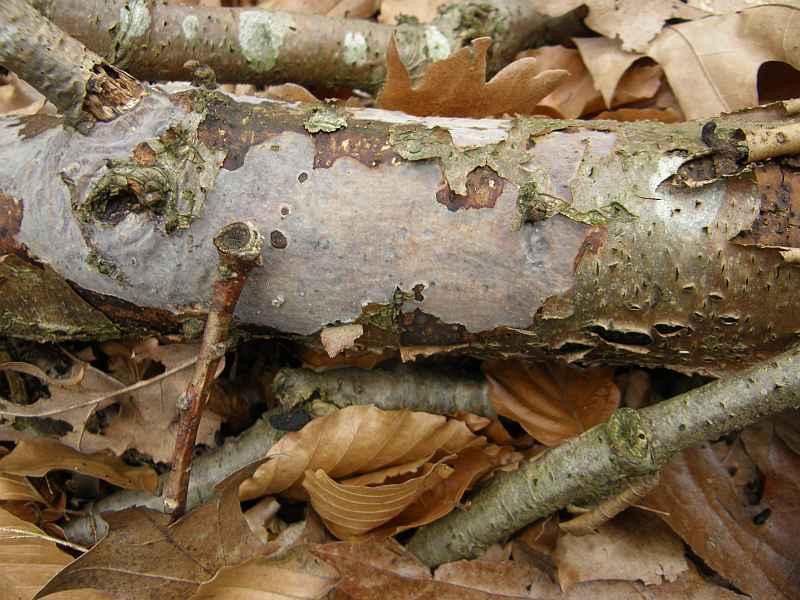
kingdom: Fungi
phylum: Basidiomycota
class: Agaricomycetes
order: Russulales
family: Peniophoraceae
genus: Peniophora
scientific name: Peniophora quercina
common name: ege-voksskind
